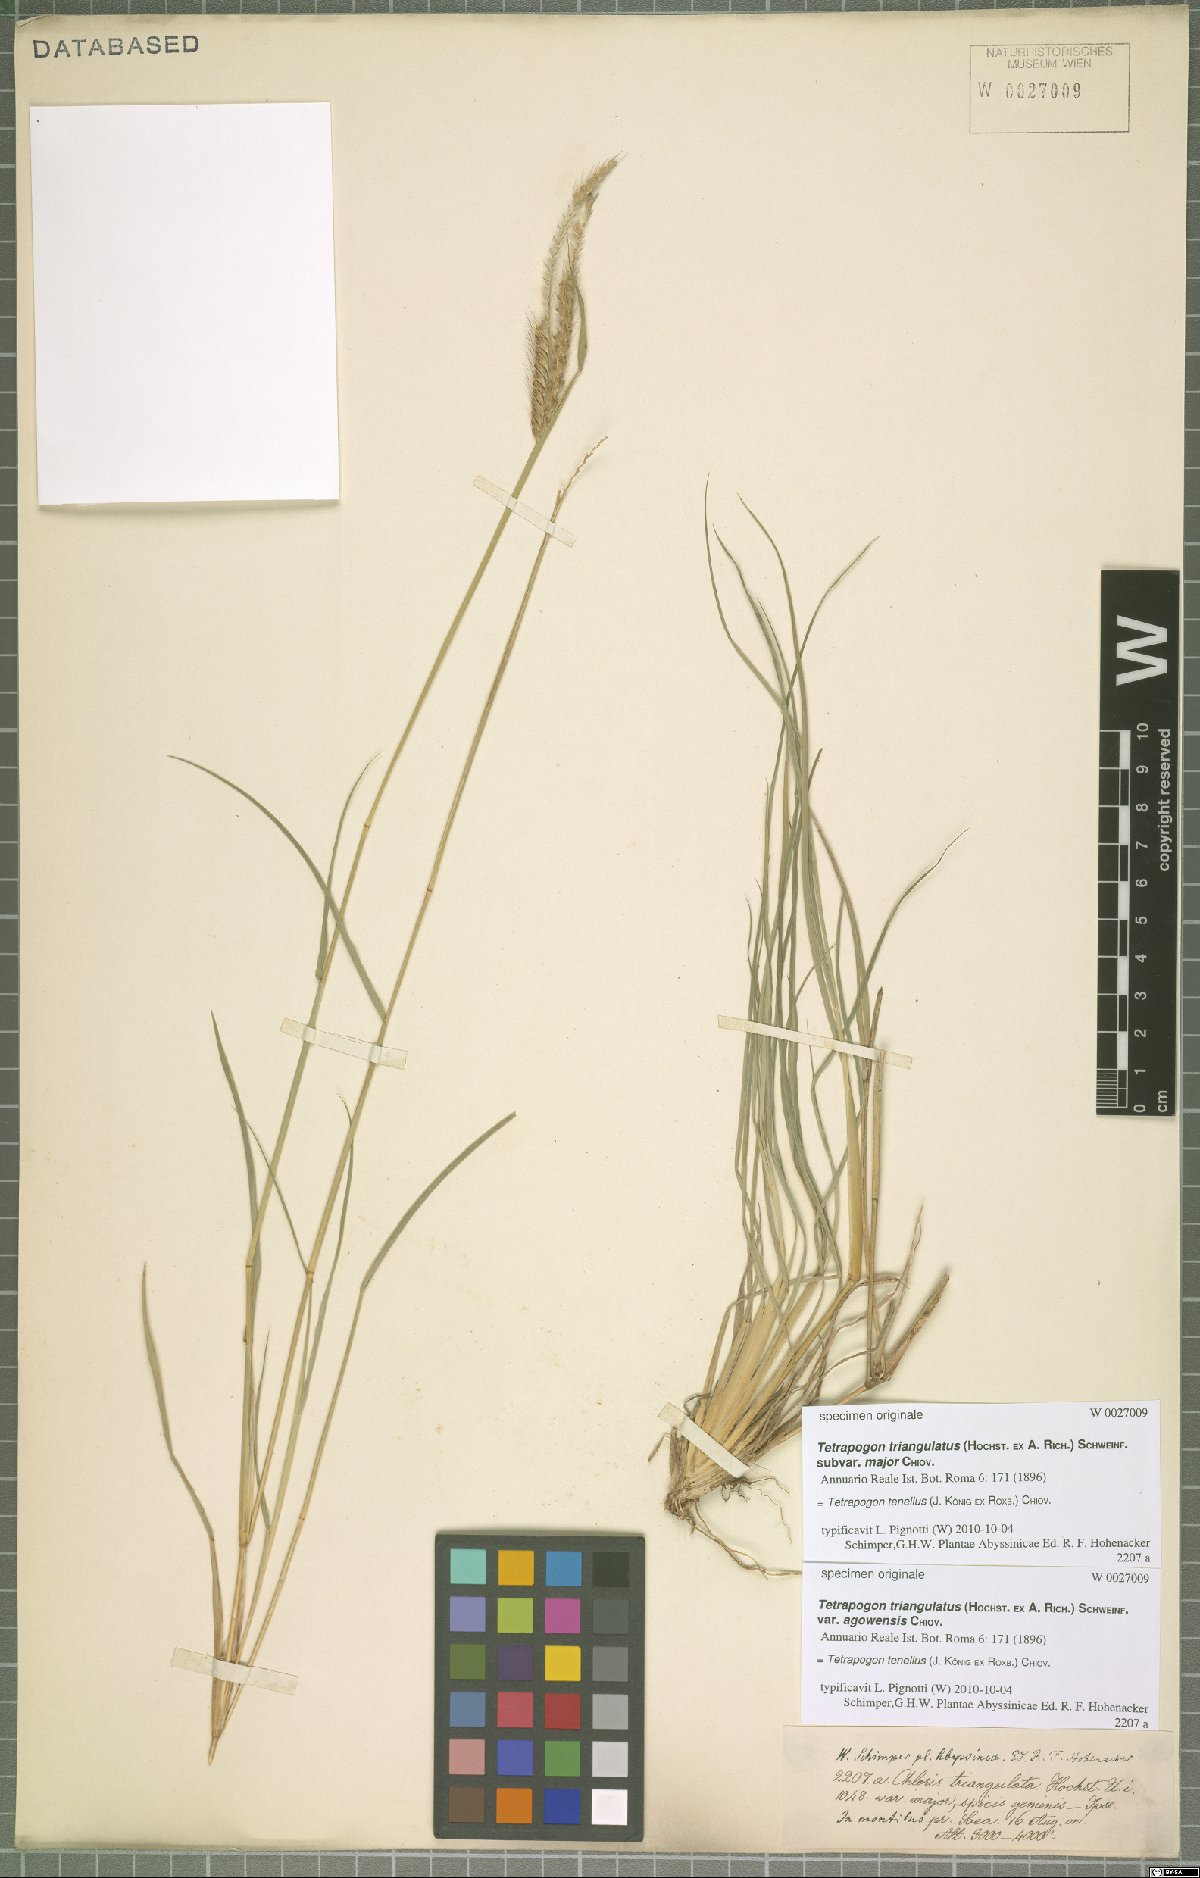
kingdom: Plantae
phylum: Tracheophyta
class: Liliopsida
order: Poales
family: Poaceae
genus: Tetrapogon
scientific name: Tetrapogon tenellus
